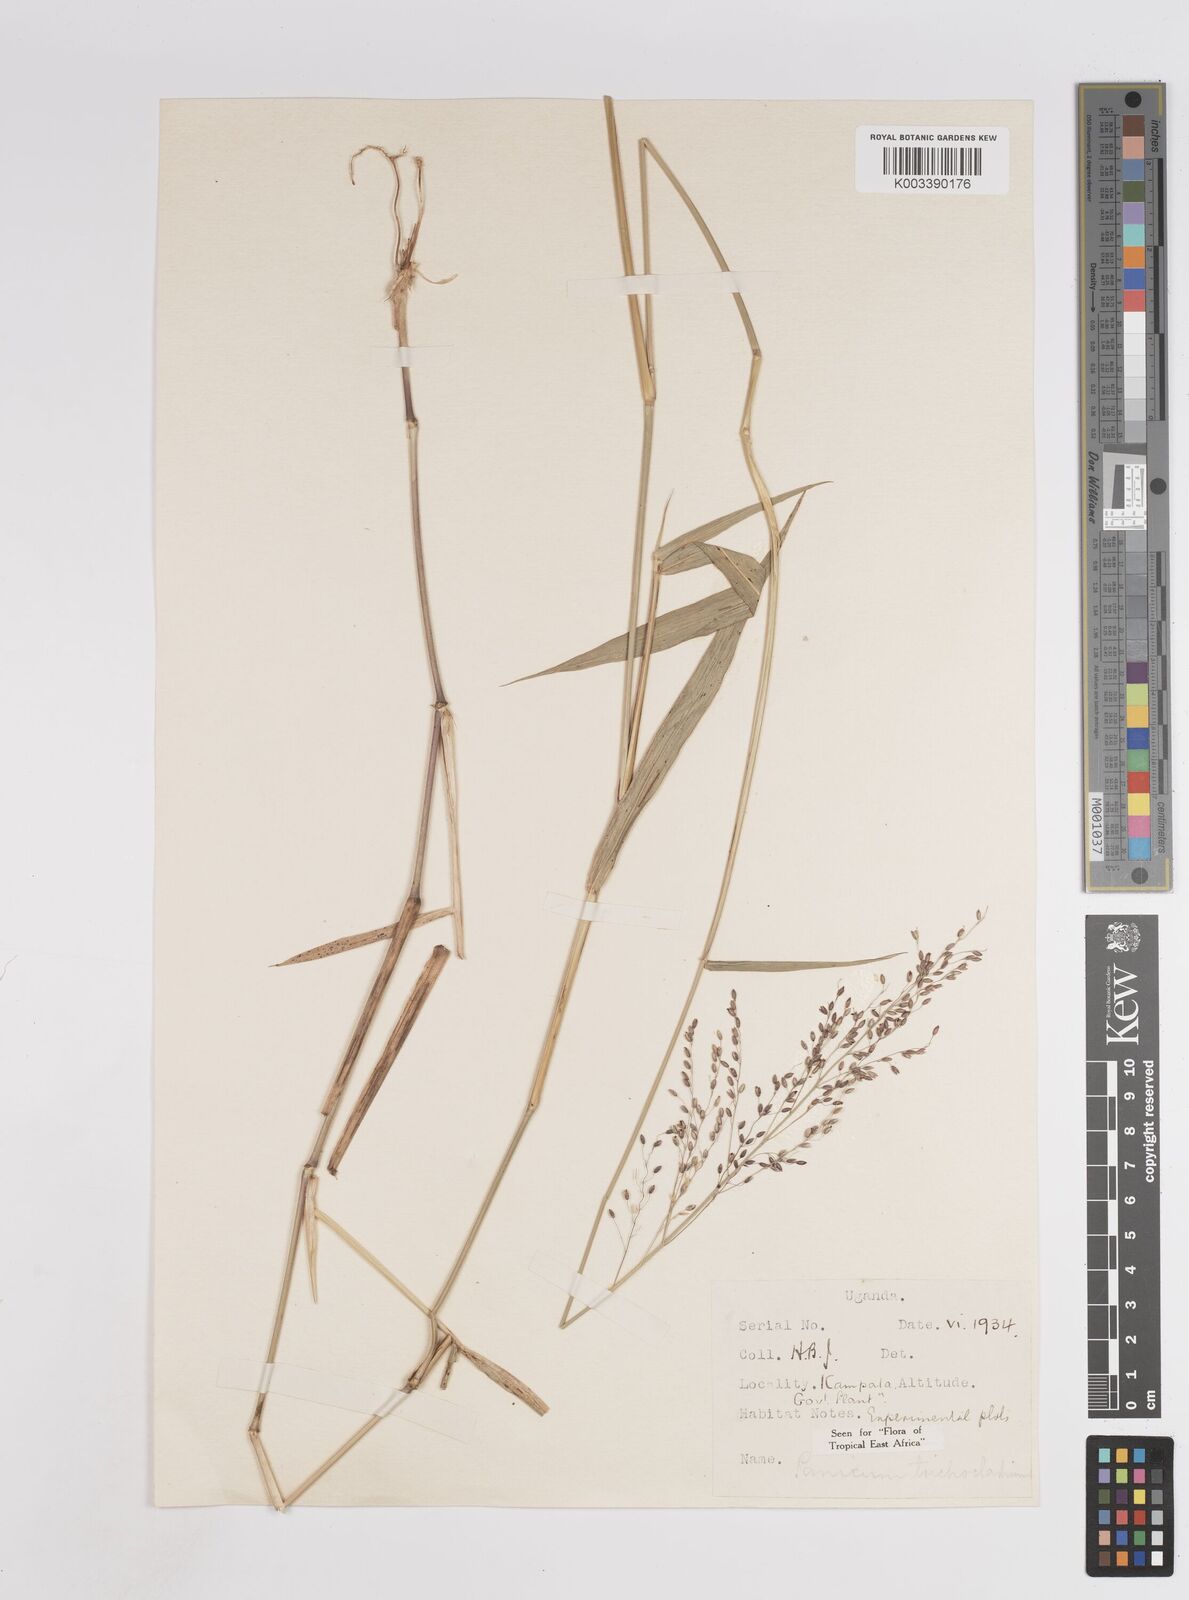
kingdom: Plantae
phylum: Tracheophyta
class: Liliopsida
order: Poales
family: Poaceae
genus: Panicum
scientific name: Panicum trichocladum
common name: Donkey grass
